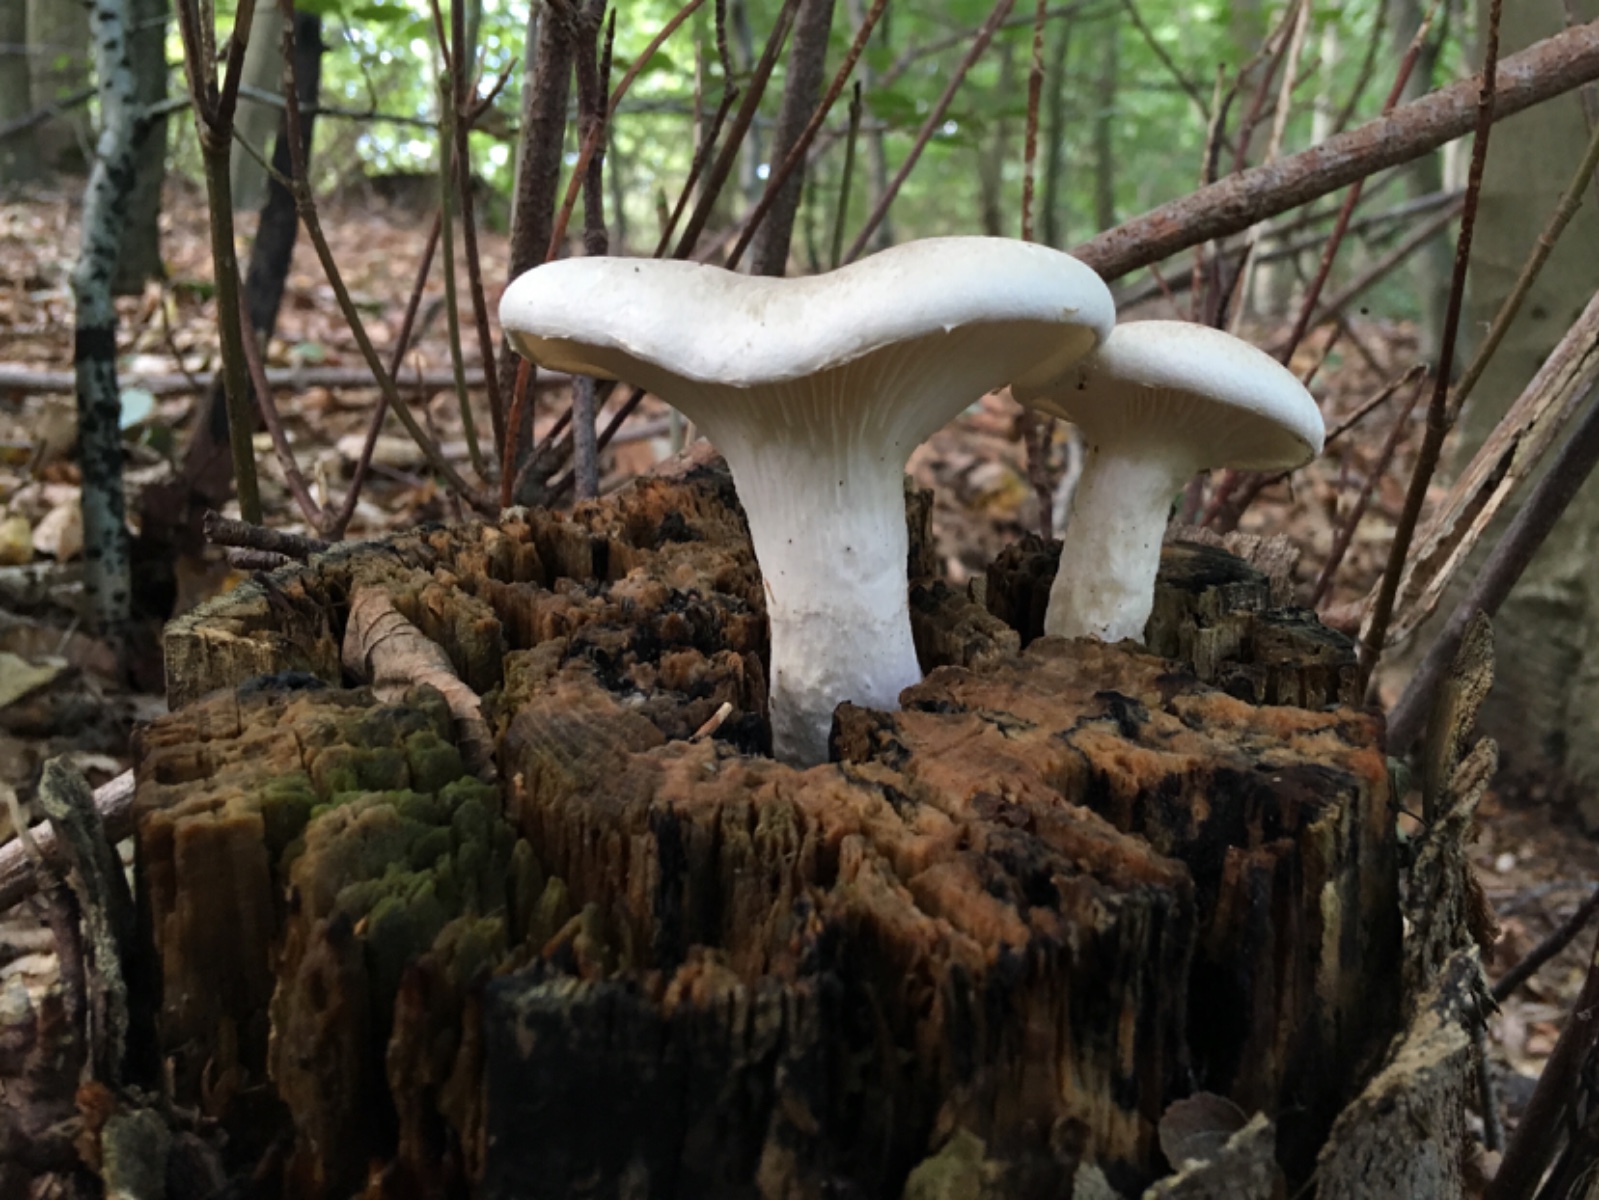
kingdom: Fungi
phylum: Basidiomycota
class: Agaricomycetes
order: Agaricales
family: Pleurotaceae
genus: Pleurotus
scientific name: Pleurotus dryinus
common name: korkagtig østershat
